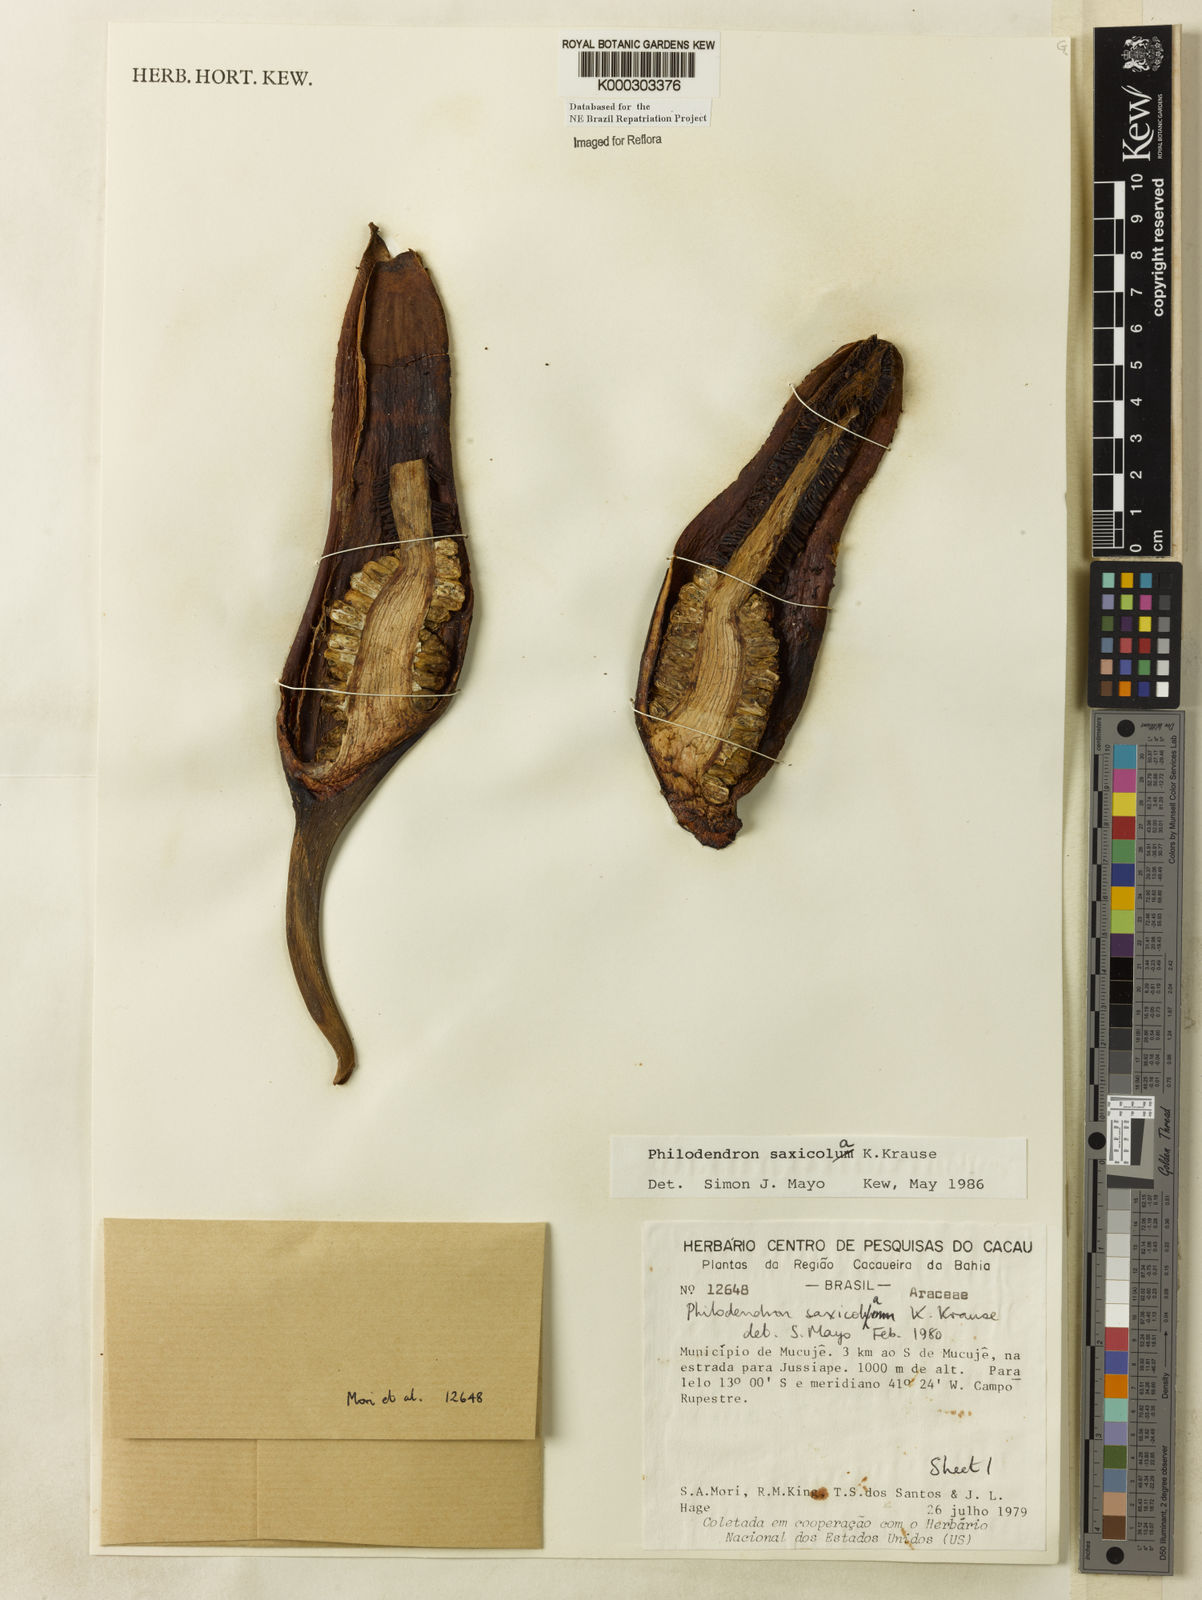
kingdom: Plantae
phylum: Tracheophyta
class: Liliopsida
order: Alismatales
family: Araceae
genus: Thaumatophyllum
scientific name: Thaumatophyllum saxicola
